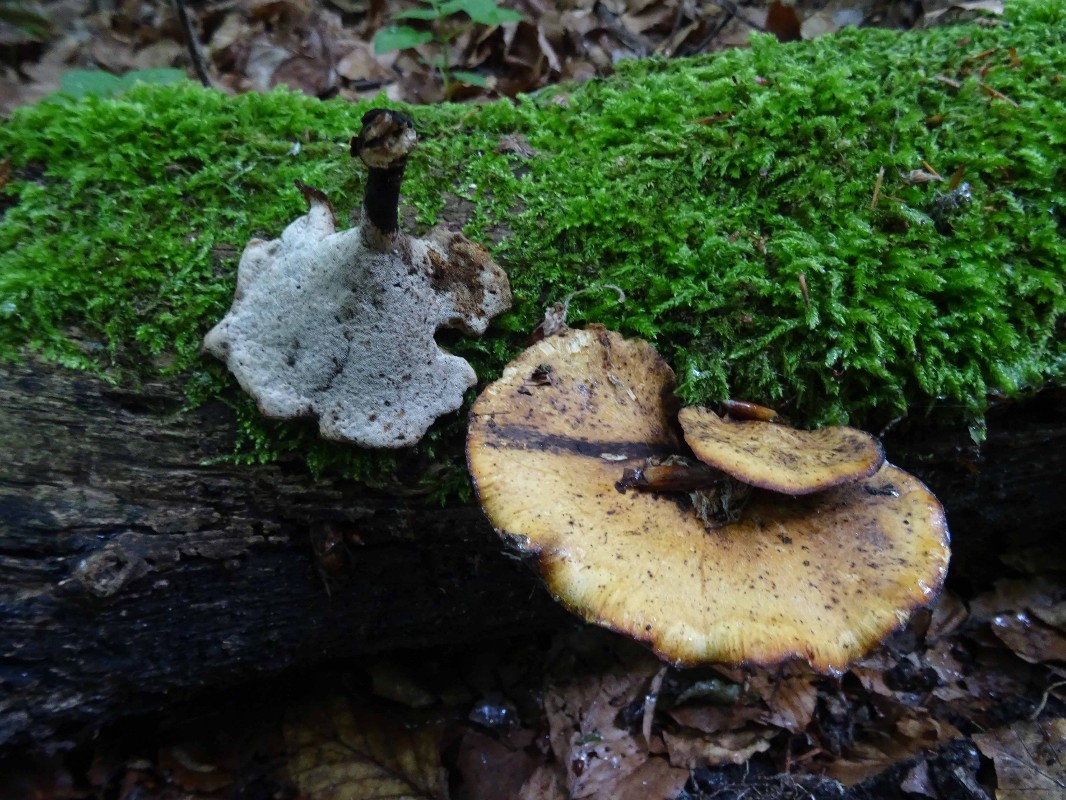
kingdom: Fungi
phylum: Basidiomycota
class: Agaricomycetes
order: Polyporales
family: Polyporaceae
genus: Cerioporus
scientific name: Cerioporus varius
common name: foranderlig stilkporesvamp
